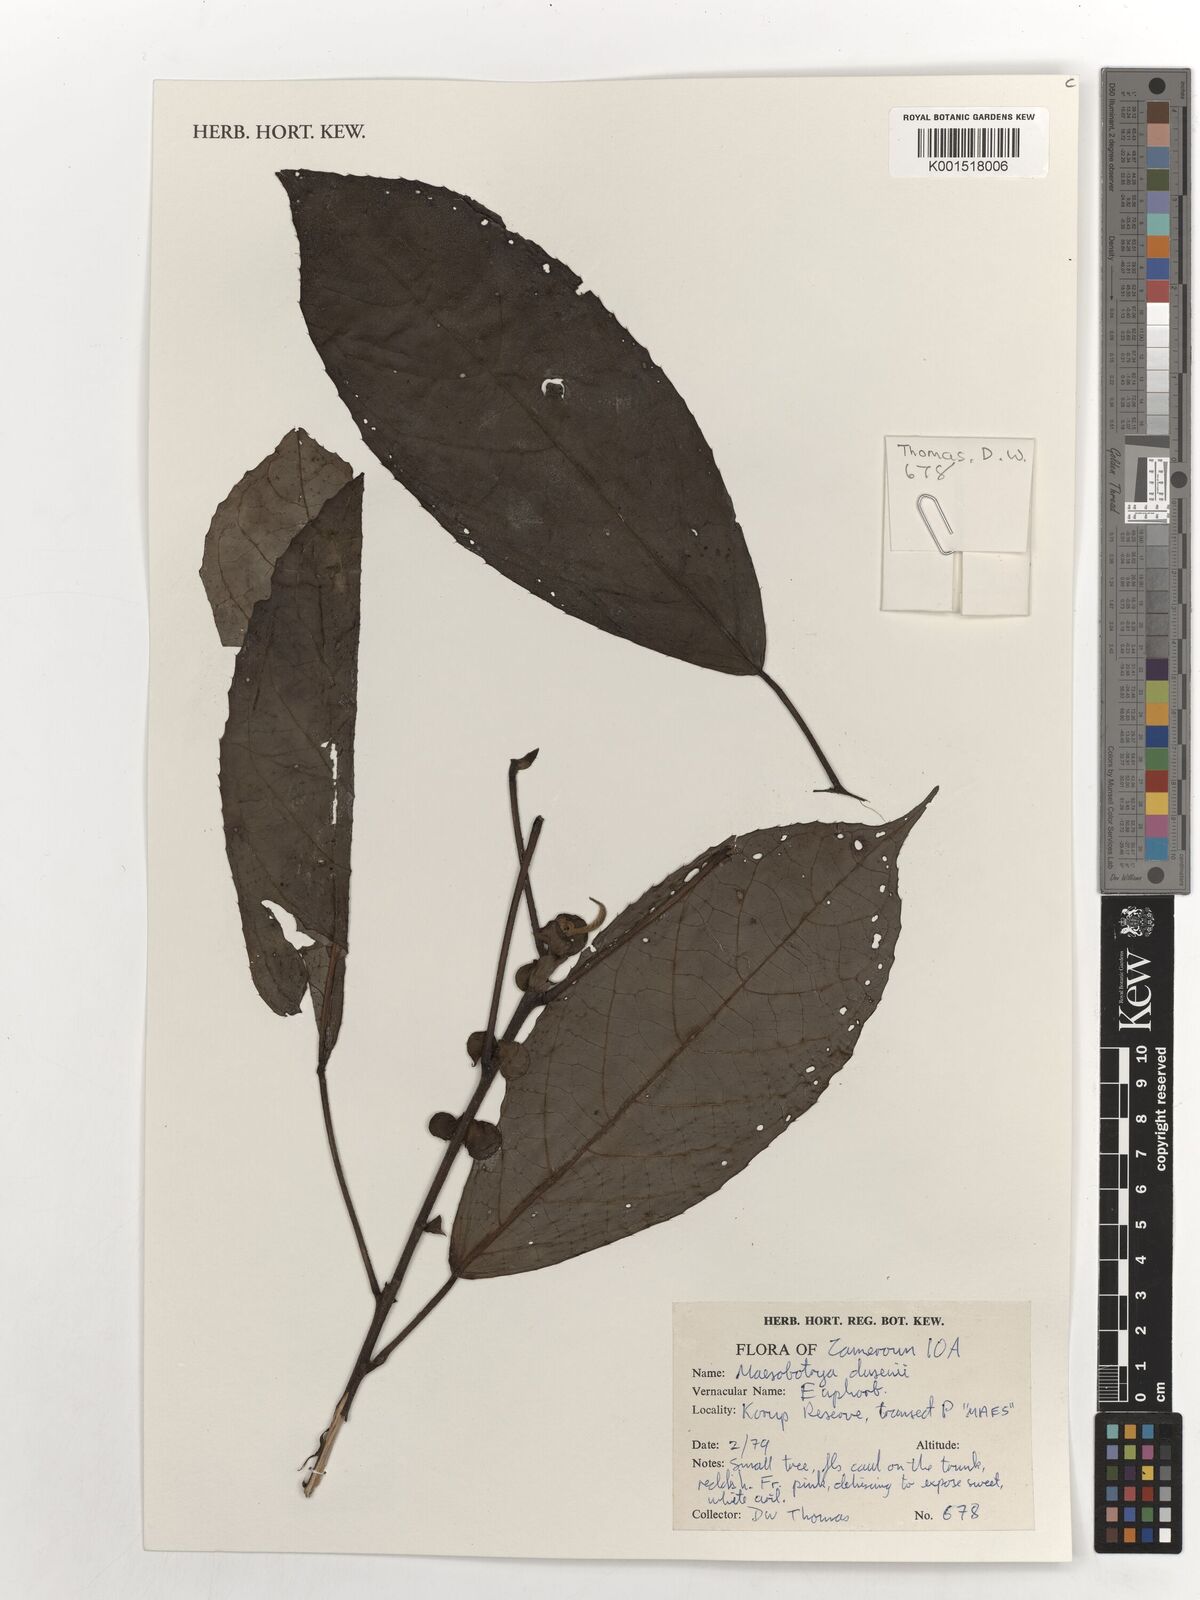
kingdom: Plantae
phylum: Tracheophyta
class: Magnoliopsida
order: Malpighiales
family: Phyllanthaceae
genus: Maesobotrya
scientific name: Maesobotrya klaineana
